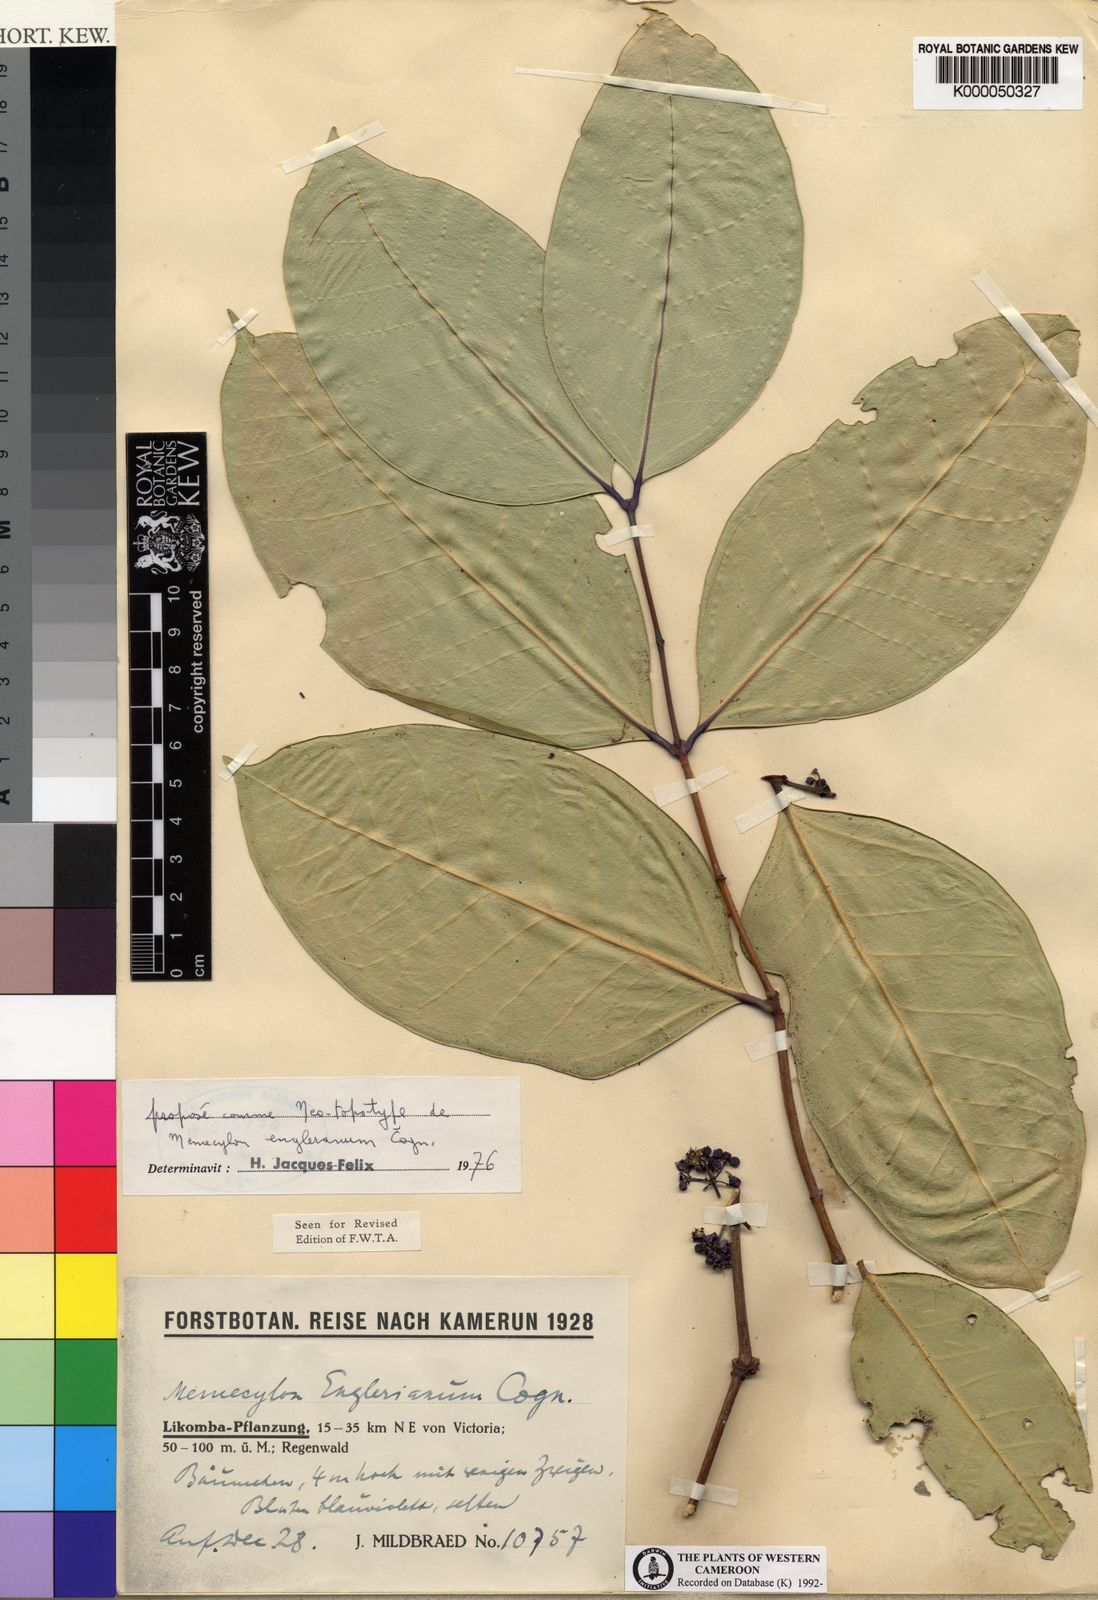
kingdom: Plantae
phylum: Tracheophyta
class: Magnoliopsida
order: Myrtales
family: Melastomataceae
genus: Memecylon
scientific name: Memecylon englerianum
